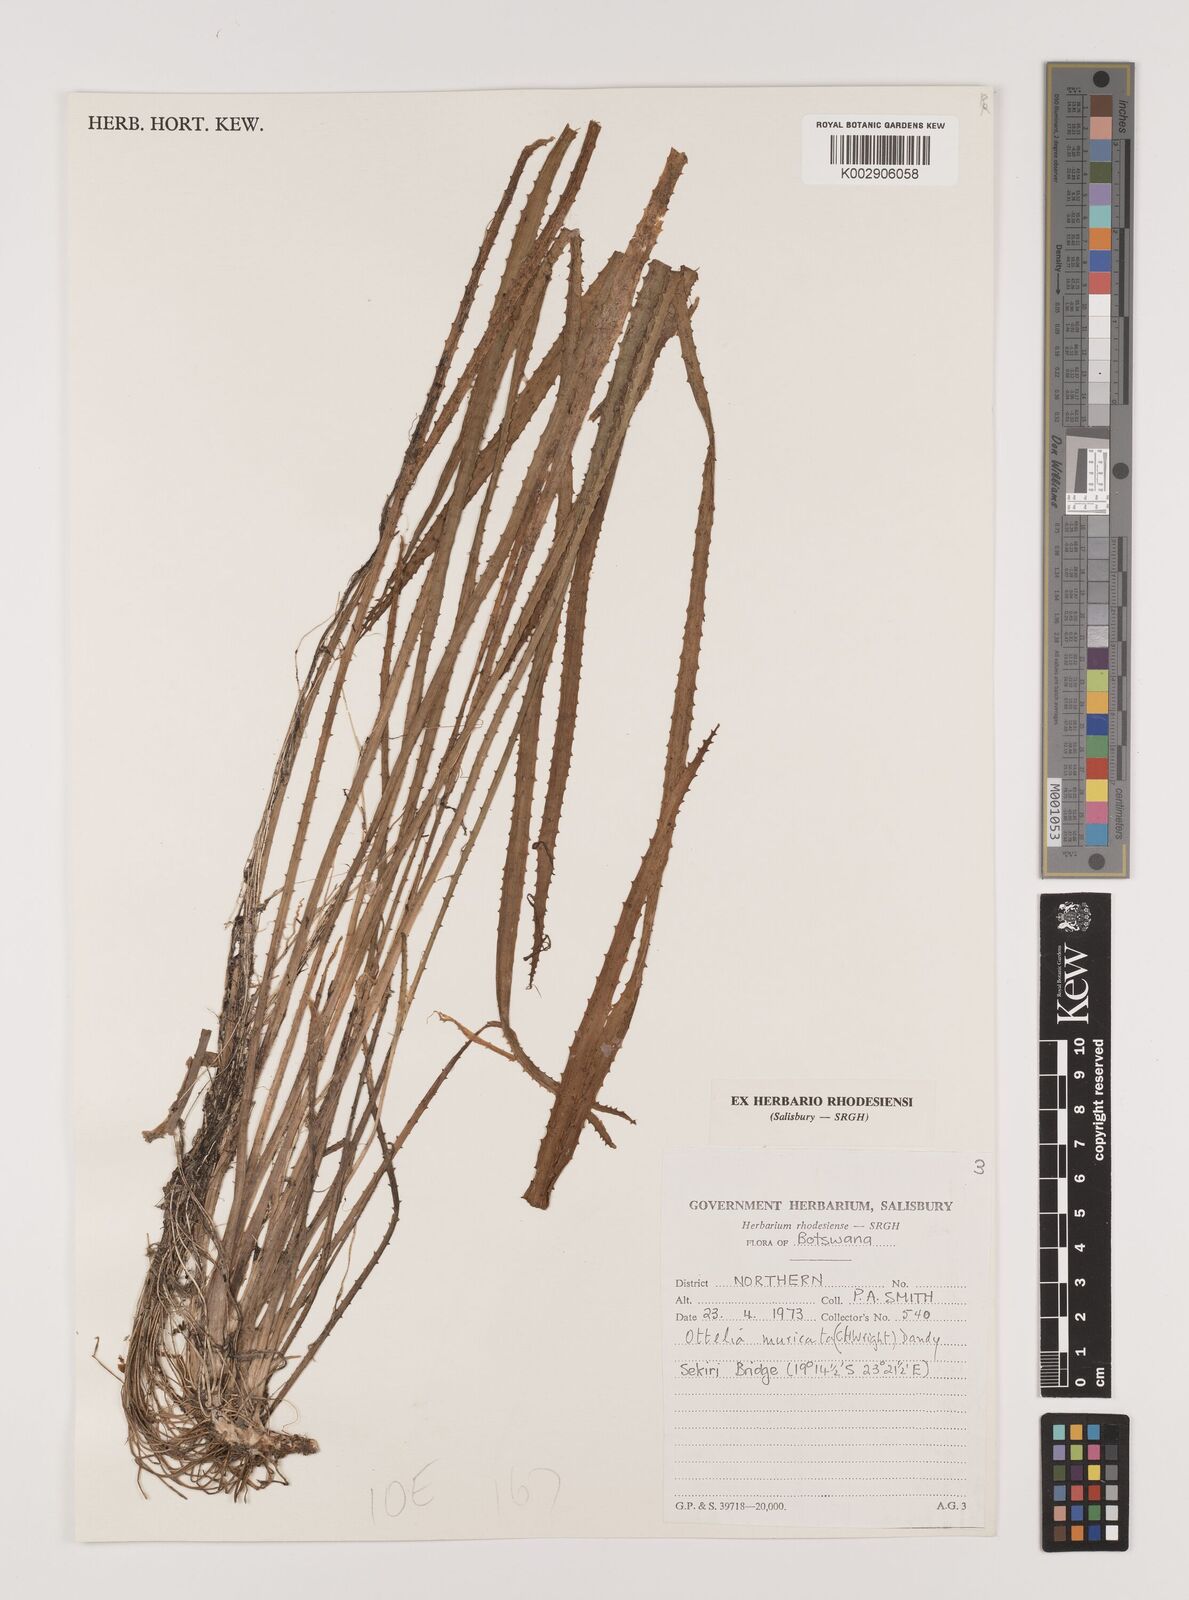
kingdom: Plantae
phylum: Tracheophyta
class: Liliopsida
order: Alismatales
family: Hydrocharitaceae
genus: Ottelia
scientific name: Ottelia muricata
